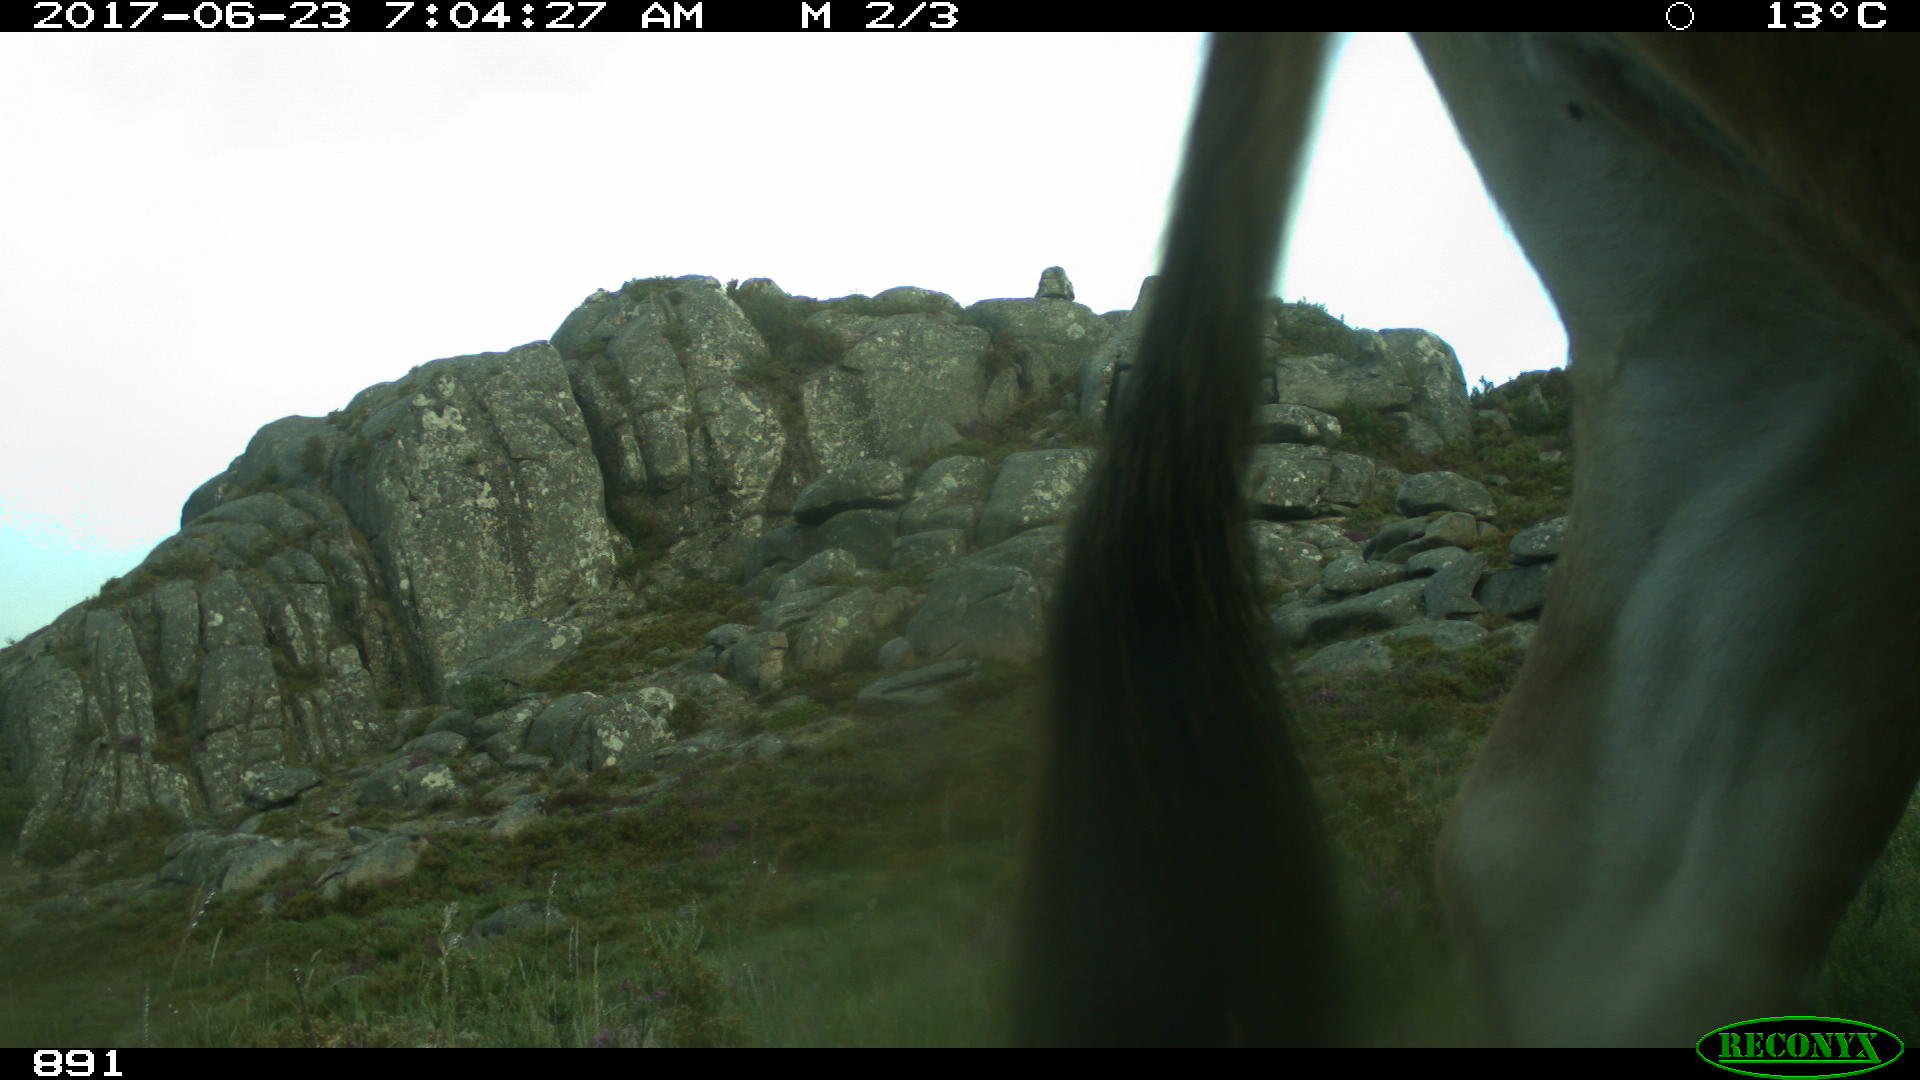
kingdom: Animalia
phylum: Chordata
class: Mammalia
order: Artiodactyla
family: Bovidae
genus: Bos
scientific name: Bos taurus
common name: Domesticated cattle
